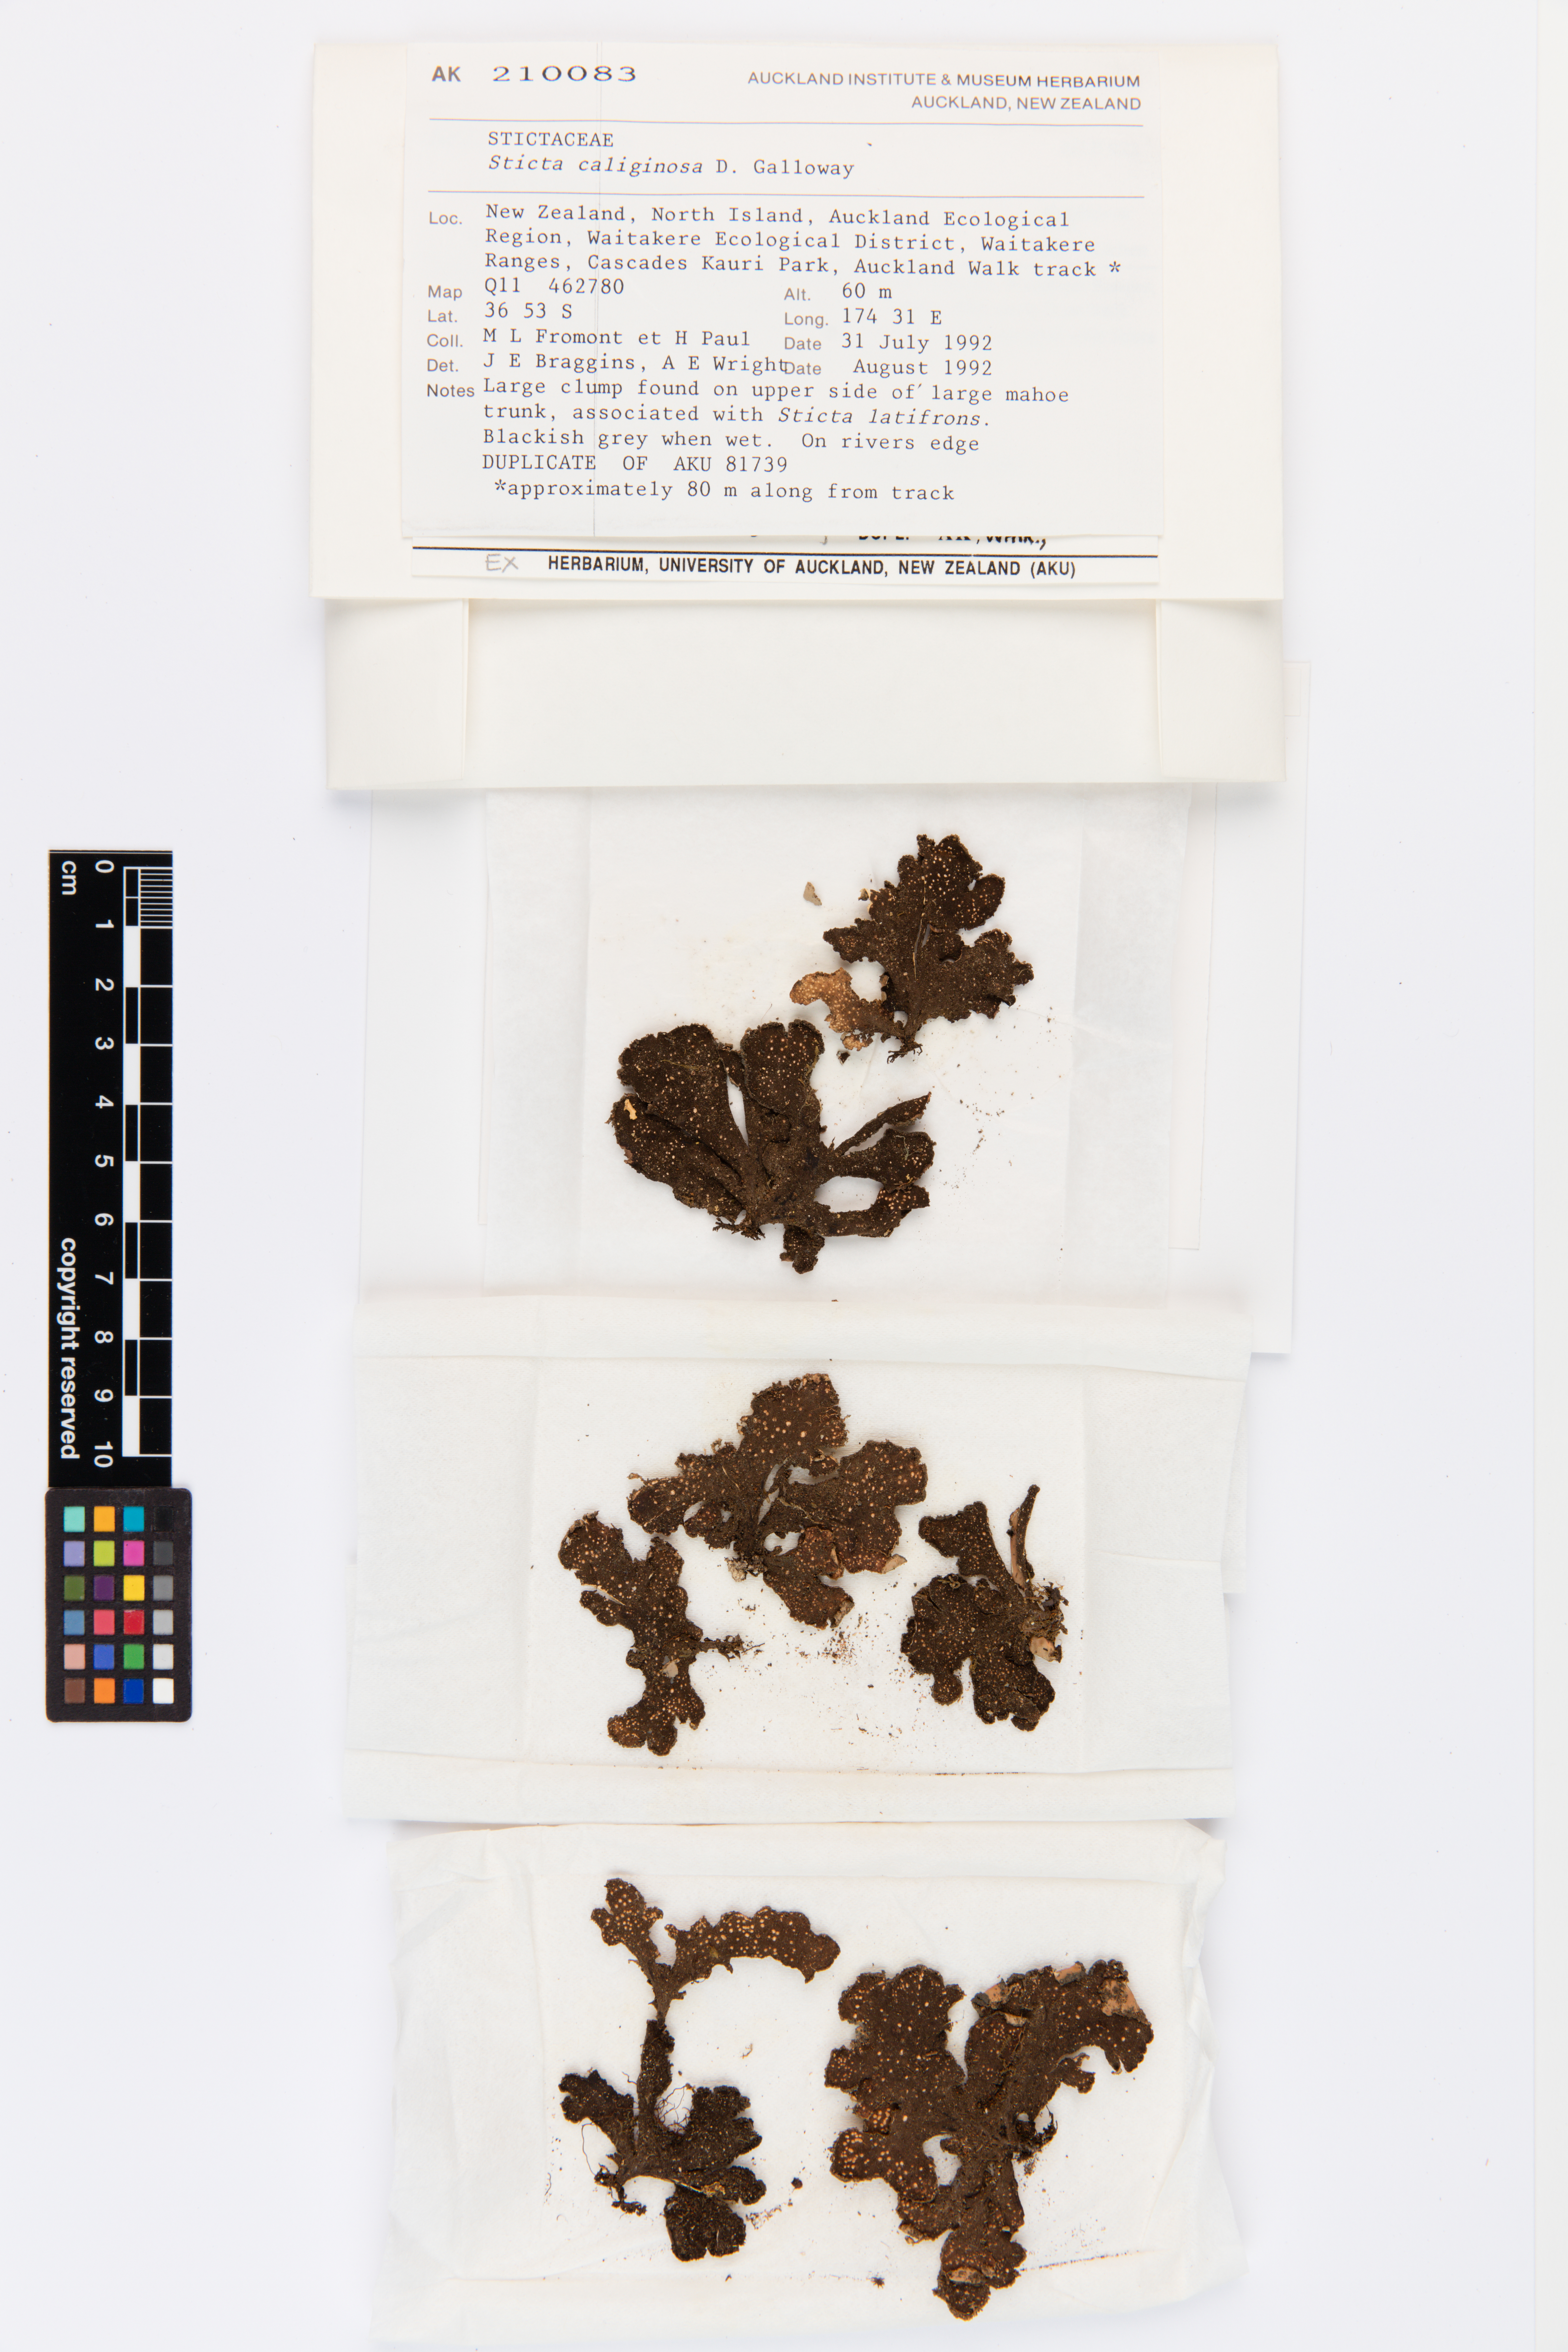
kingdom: Fungi
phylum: Ascomycota
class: Lecanoromycetes
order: Peltigerales
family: Lobariaceae
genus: Sticta
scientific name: Sticta caliginosa
